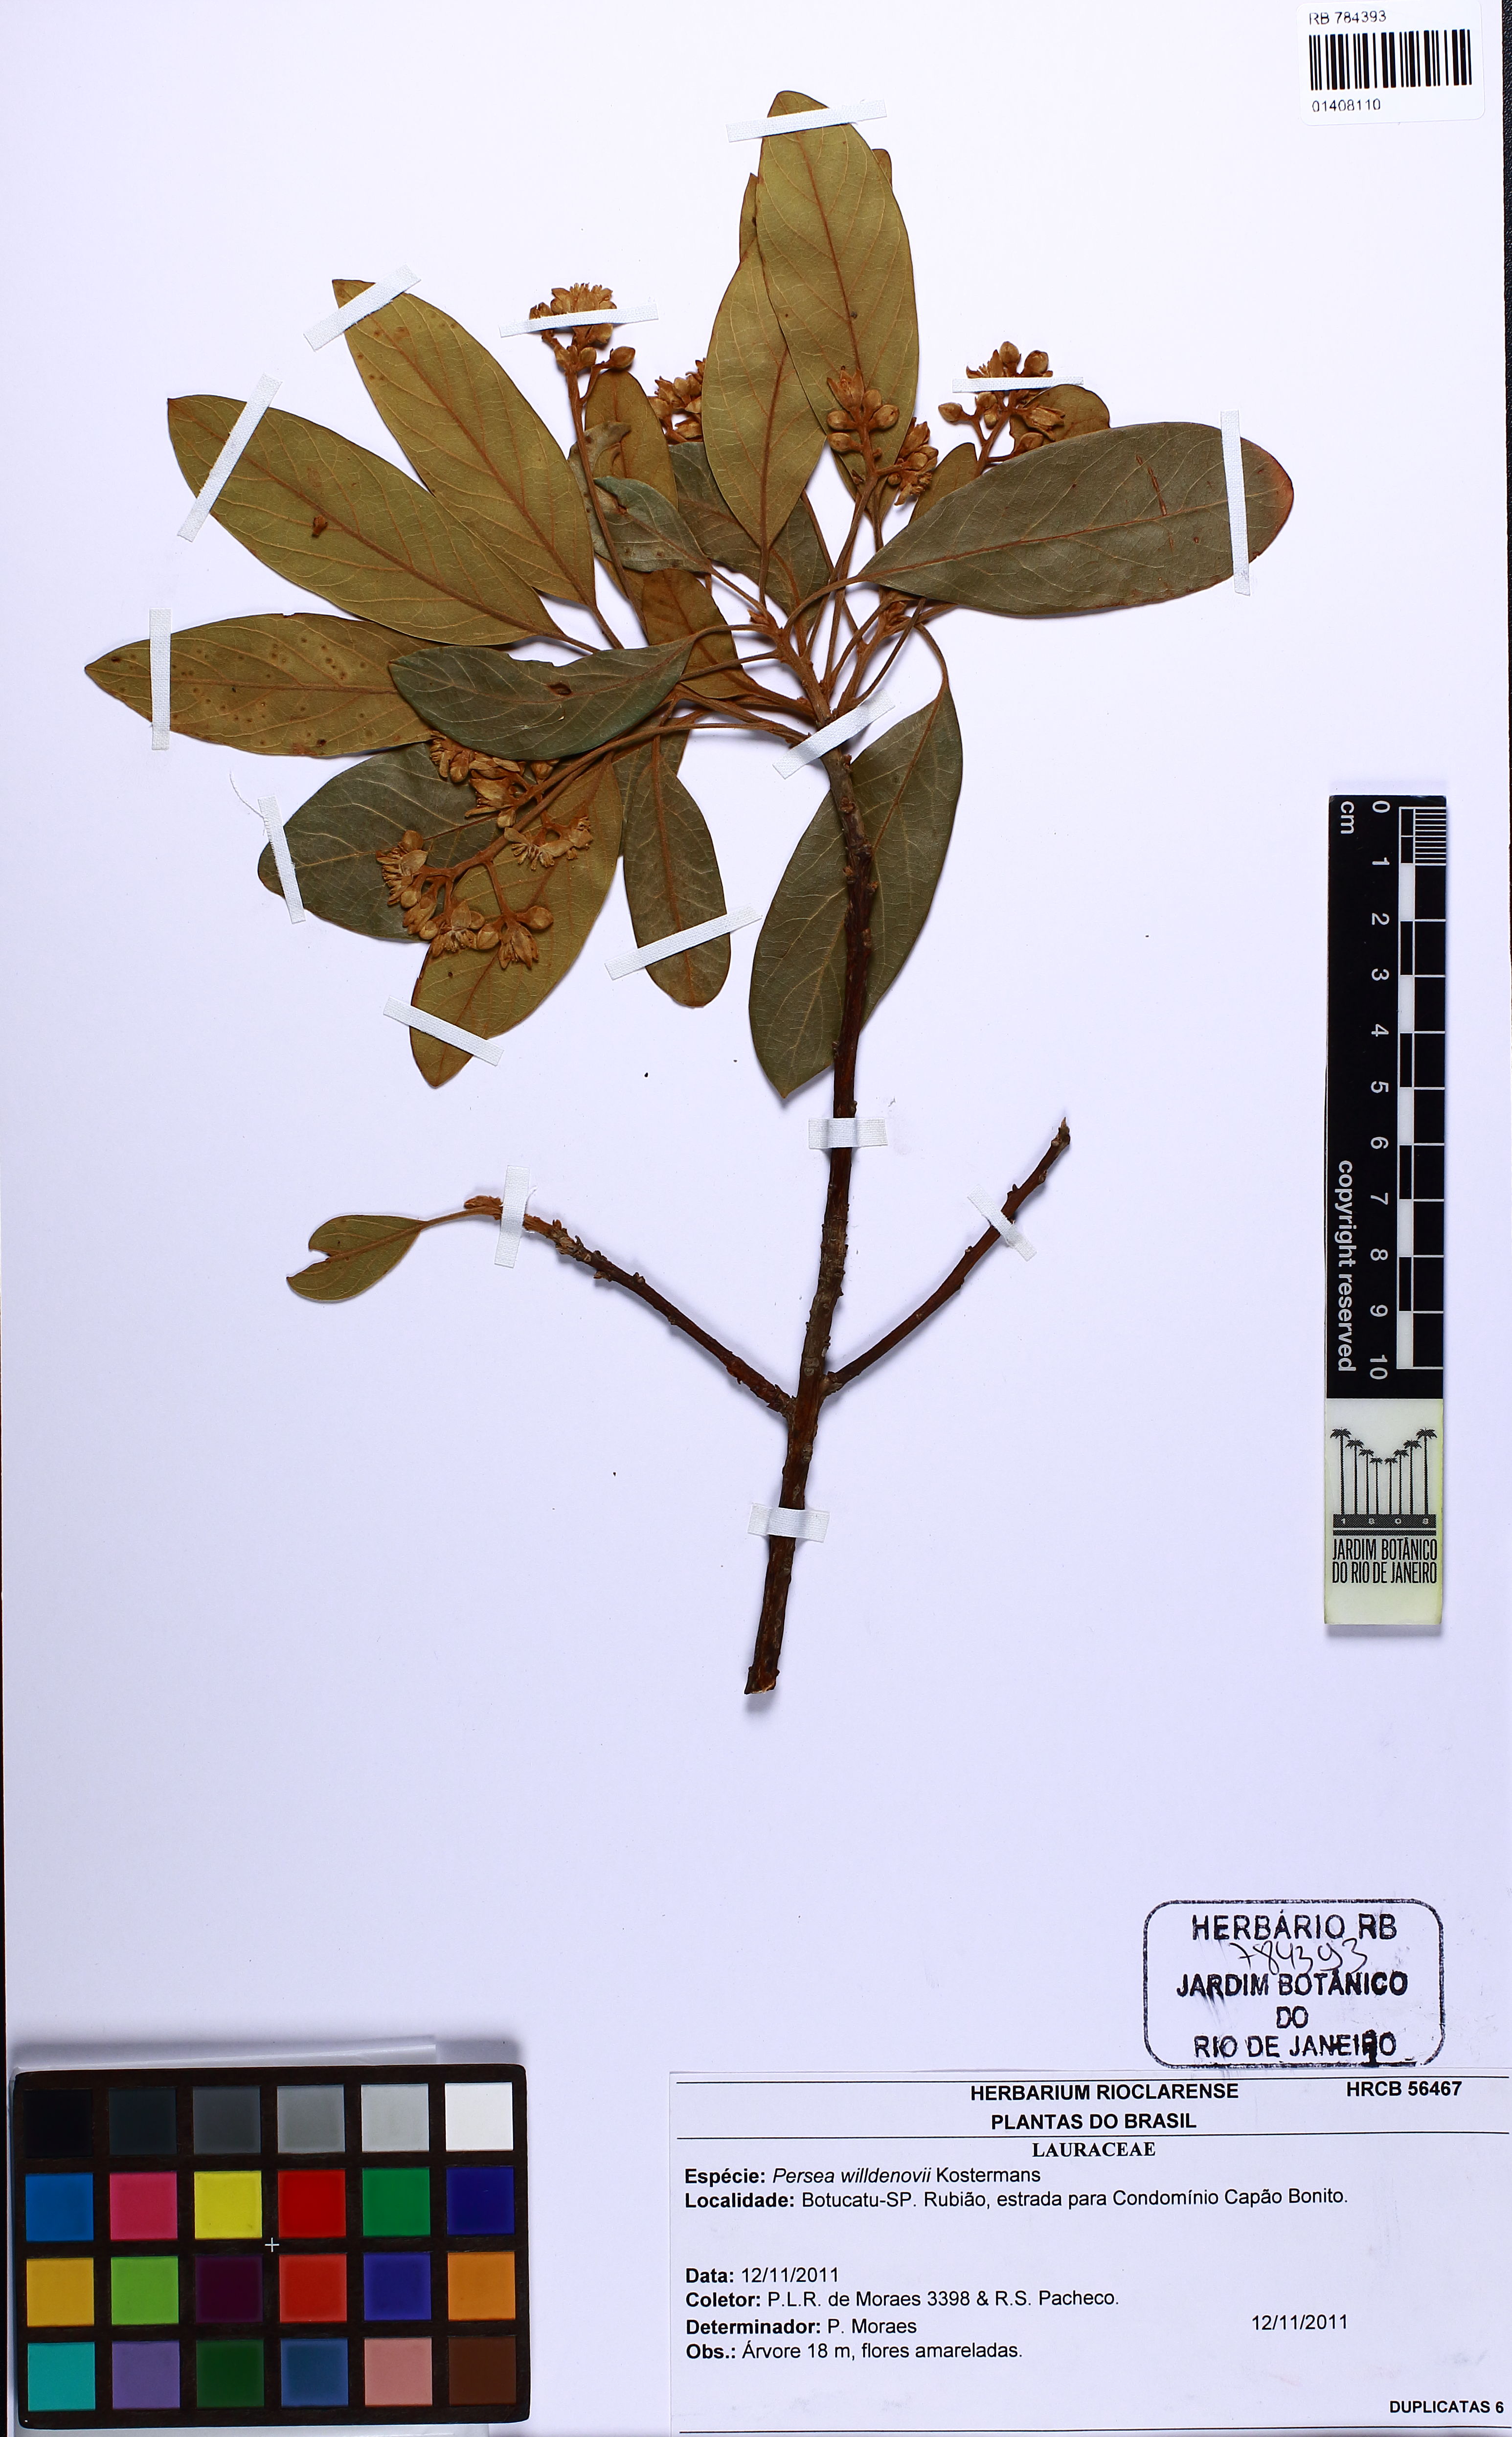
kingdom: Plantae
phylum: Tracheophyta
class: Magnoliopsida
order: Laurales
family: Lauraceae
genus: Persea
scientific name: Persea willdenovii
